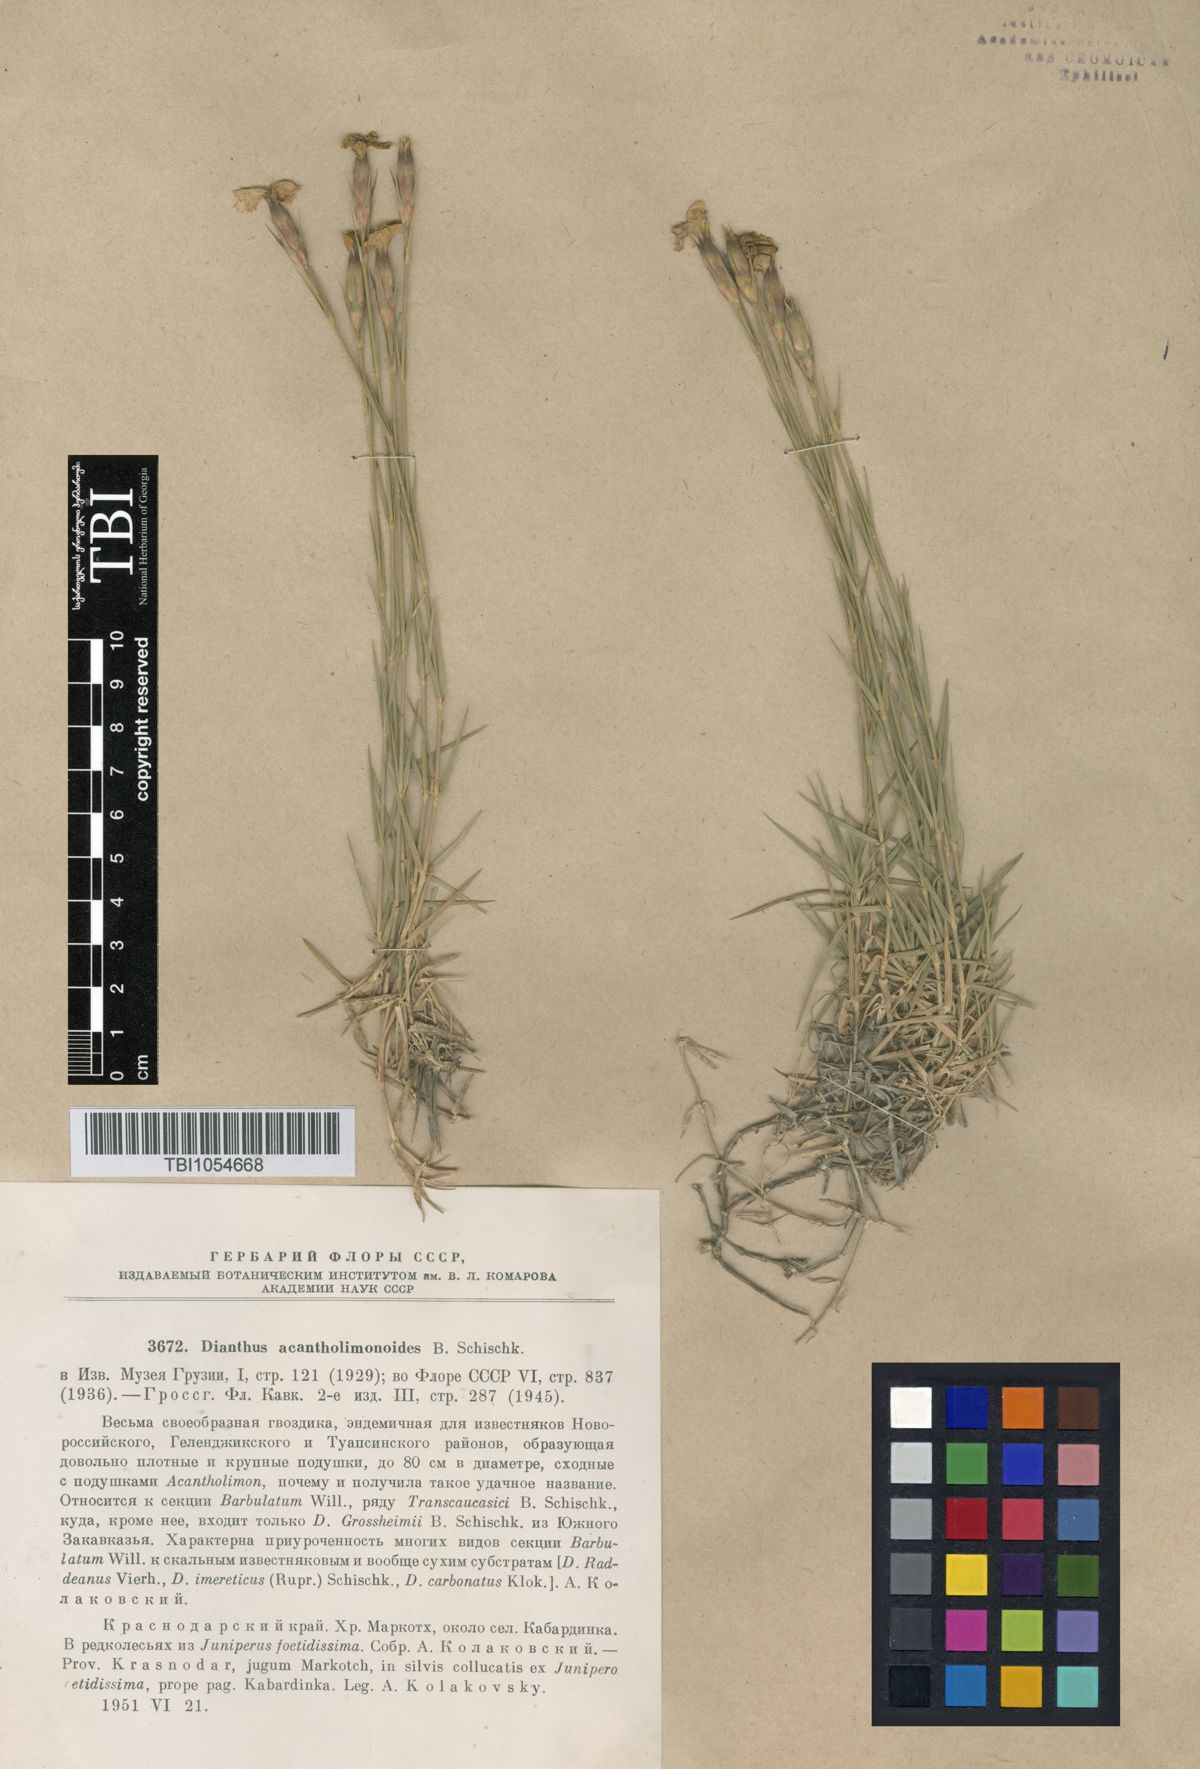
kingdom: Plantae
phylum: Tracheophyta
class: Magnoliopsida
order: Caryophyllales
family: Caryophyllaceae
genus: Dianthus
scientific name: Dianthus
